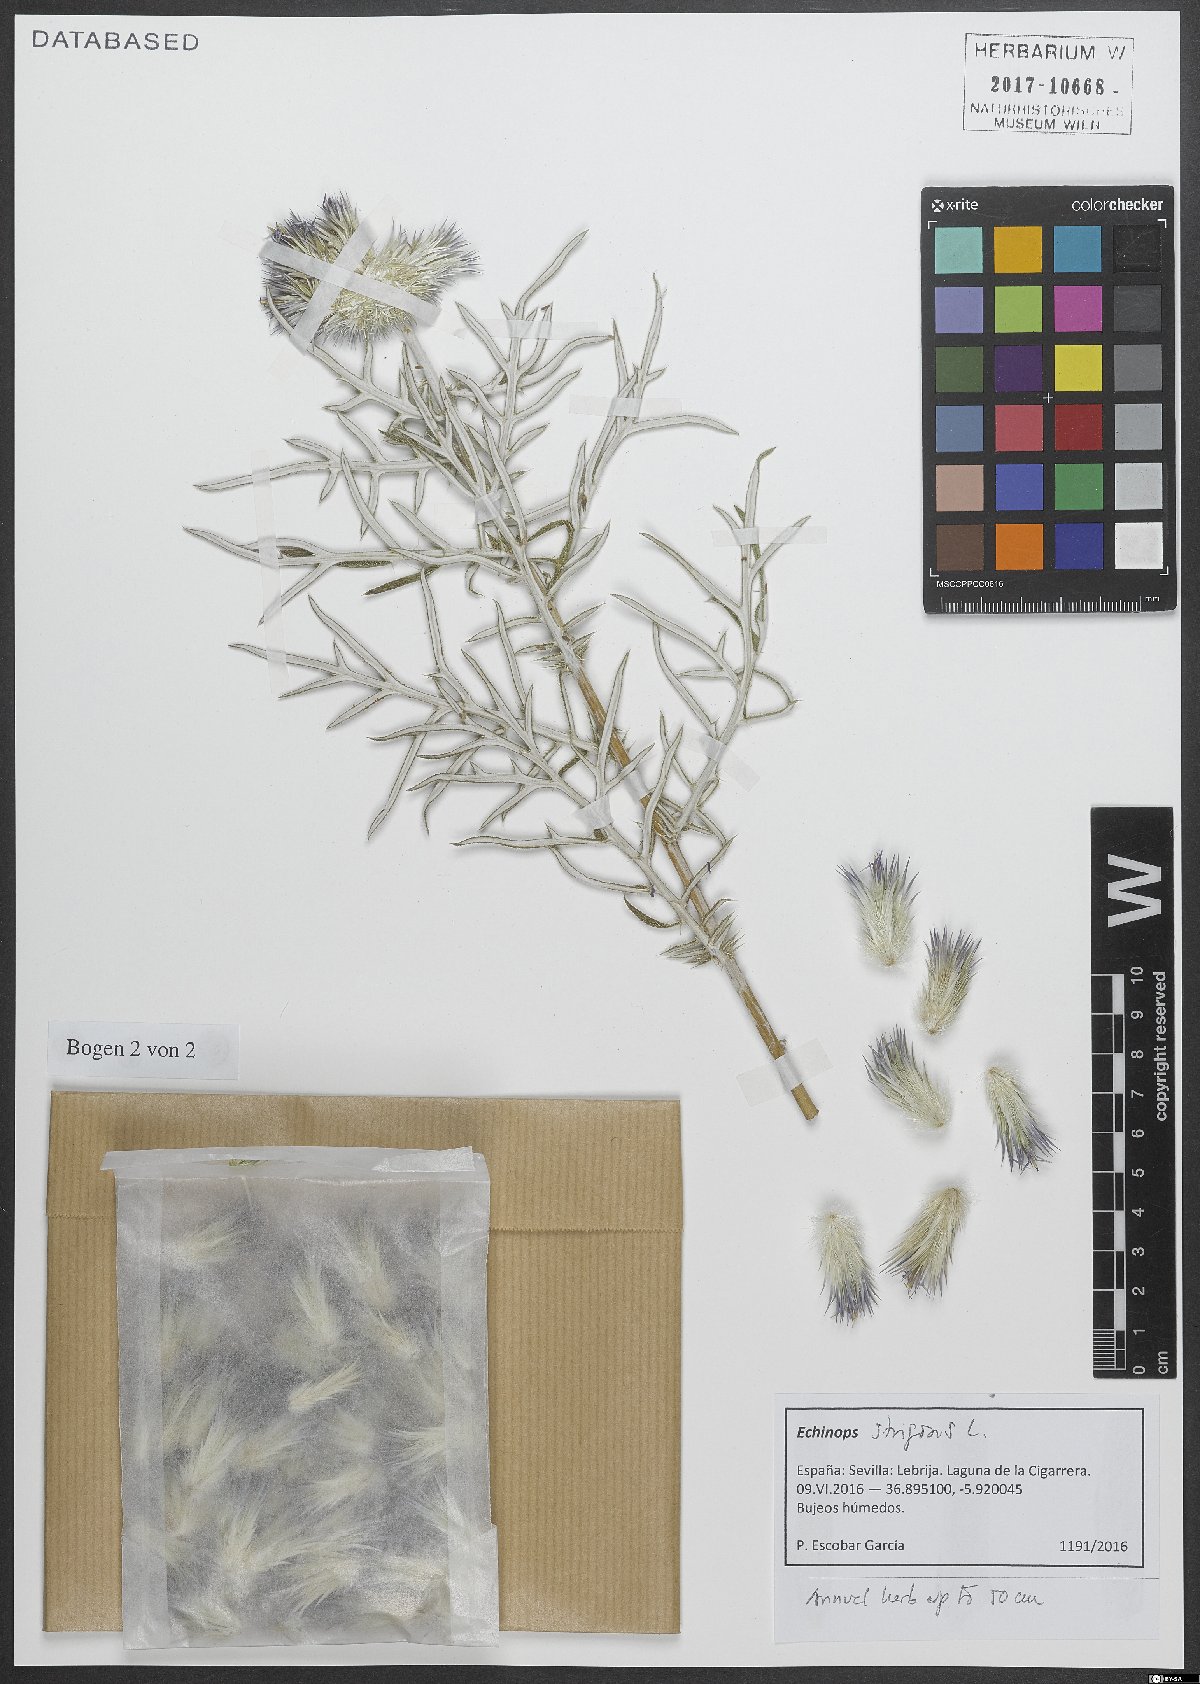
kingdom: Plantae
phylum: Tracheophyta
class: Magnoliopsida
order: Asterales
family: Asteraceae
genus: Echinops
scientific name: Echinops strigosus
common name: Rough-leaf globe thistle
